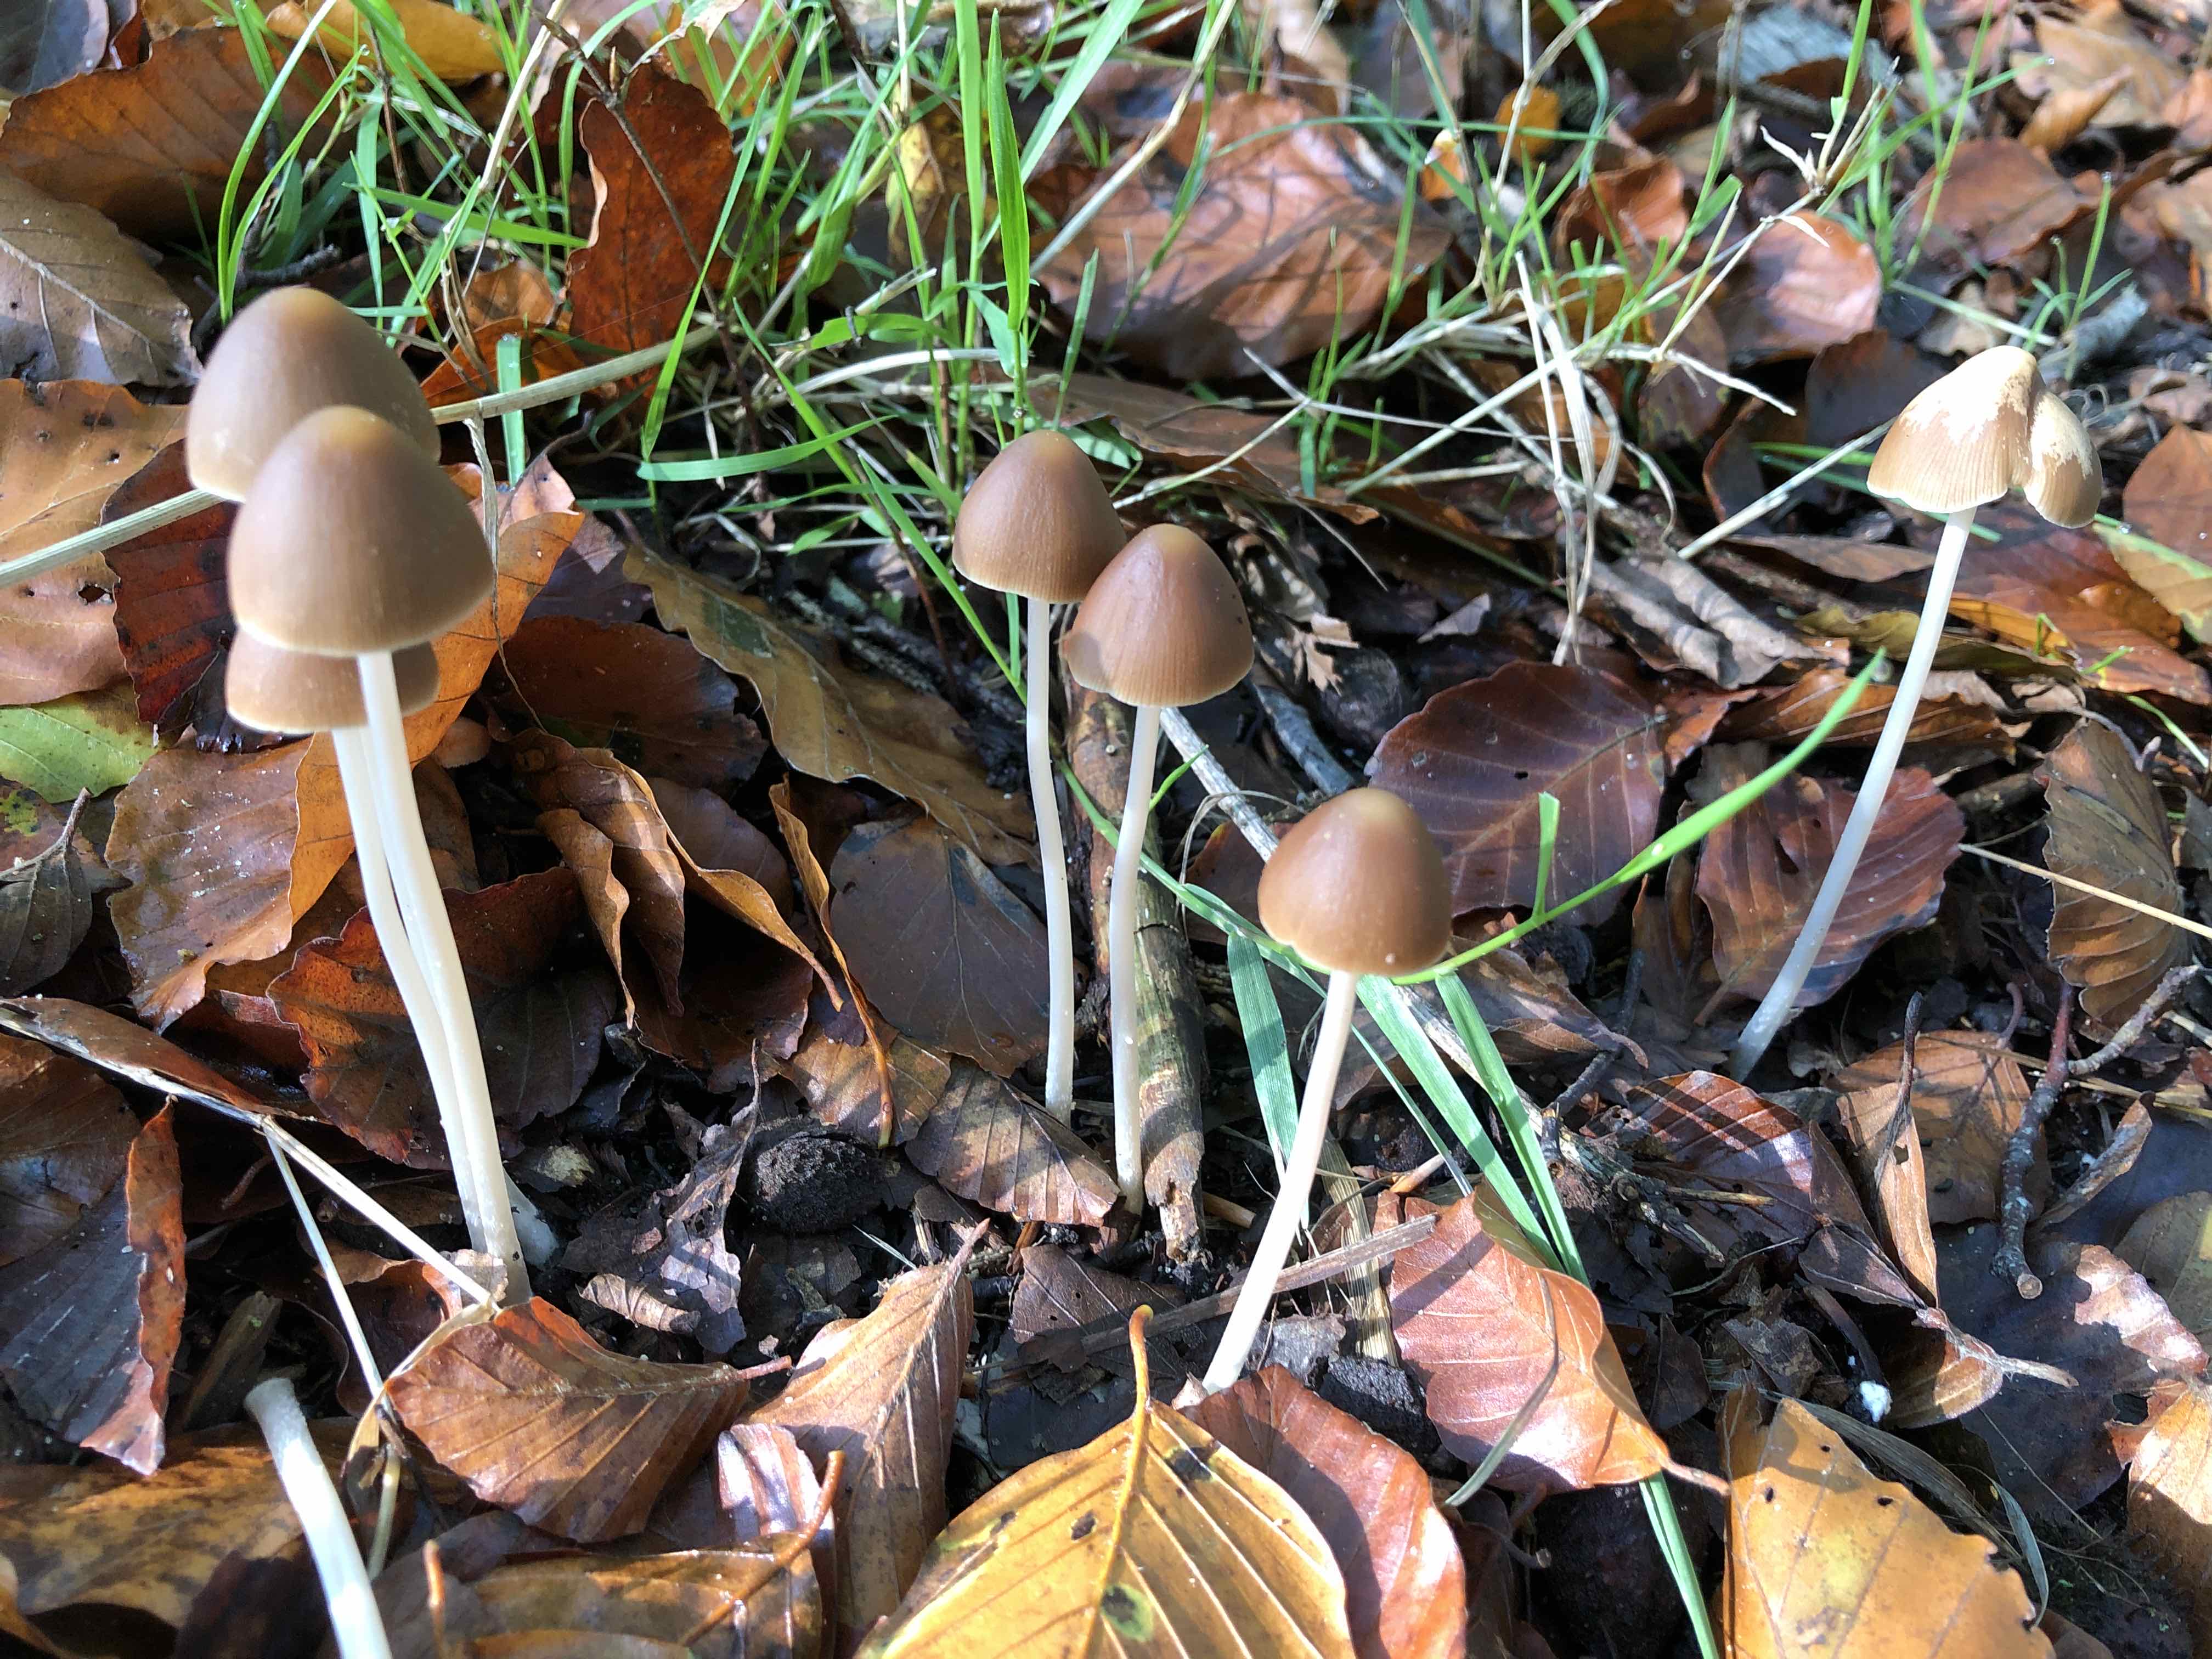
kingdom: Fungi
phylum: Basidiomycota
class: Agaricomycetes
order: Agaricales
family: Psathyrellaceae
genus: Parasola
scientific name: Parasola conopilea
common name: kegle-hjulhat
